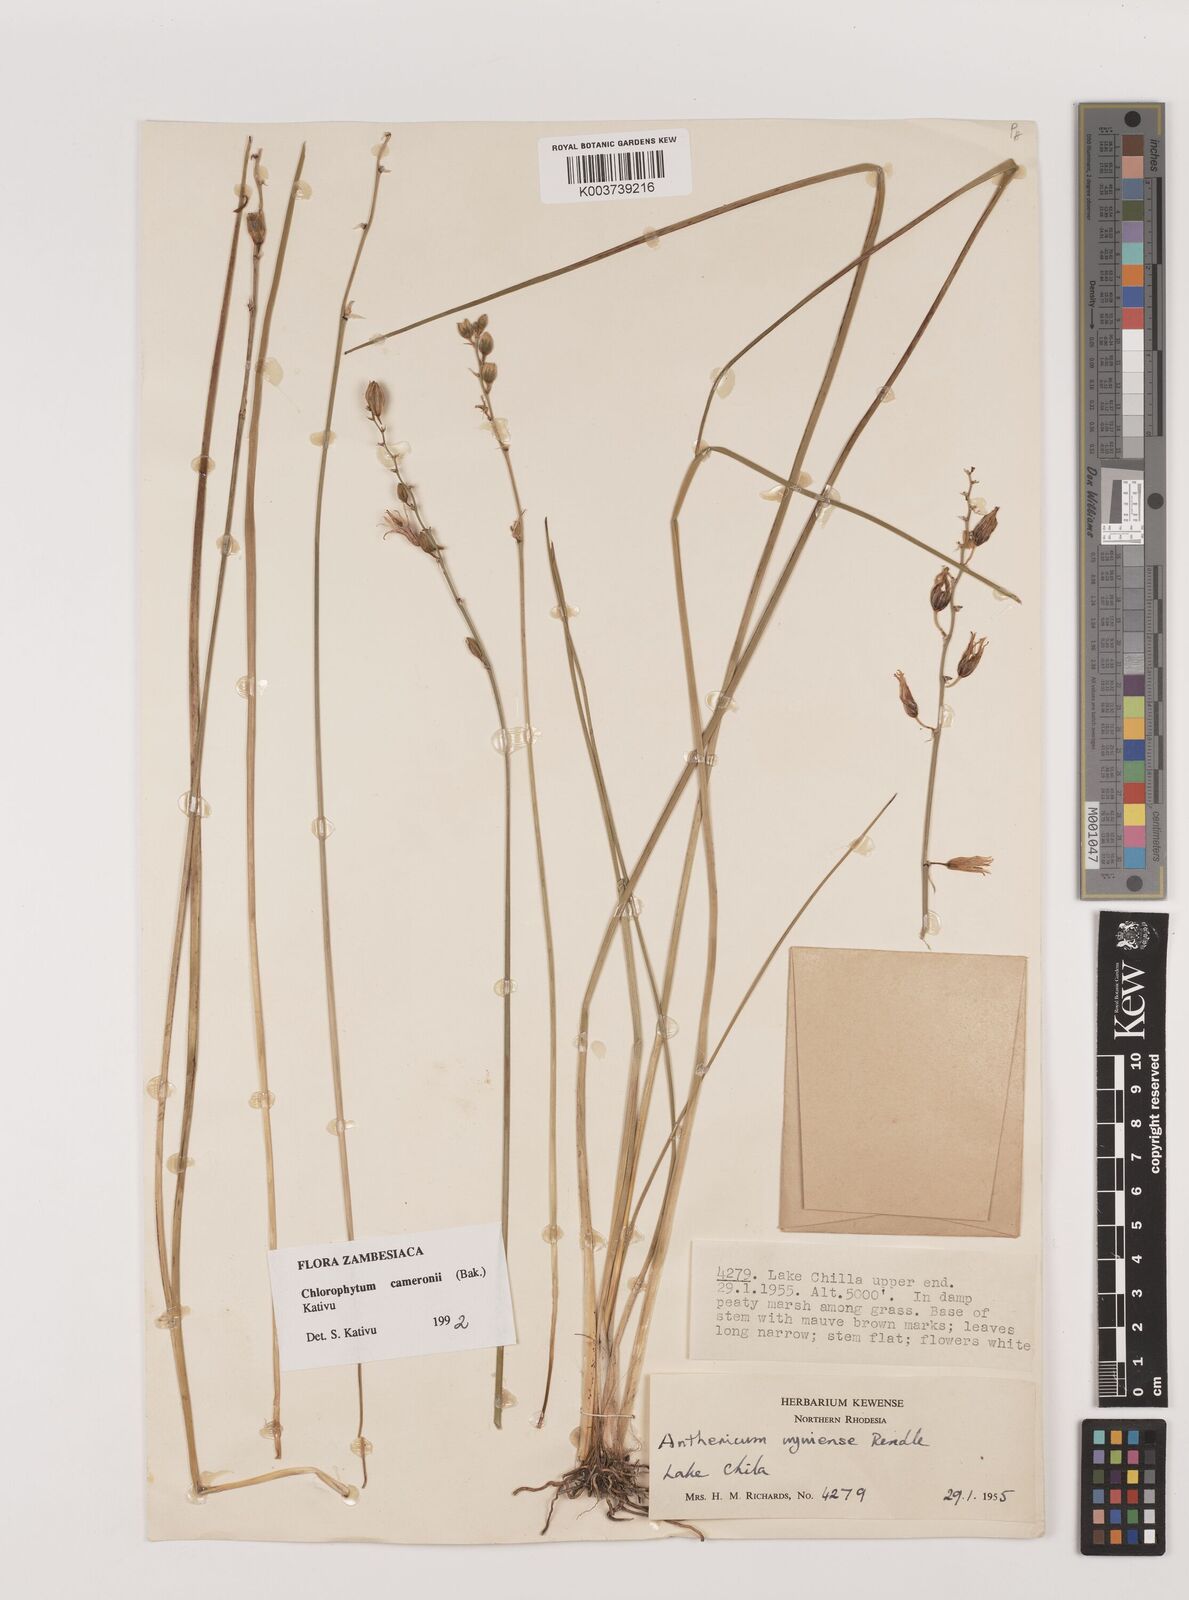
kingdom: Plantae
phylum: Tracheophyta
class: Liliopsida
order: Asparagales
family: Asparagaceae
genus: Chlorophytum
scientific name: Chlorophytum cameronii
